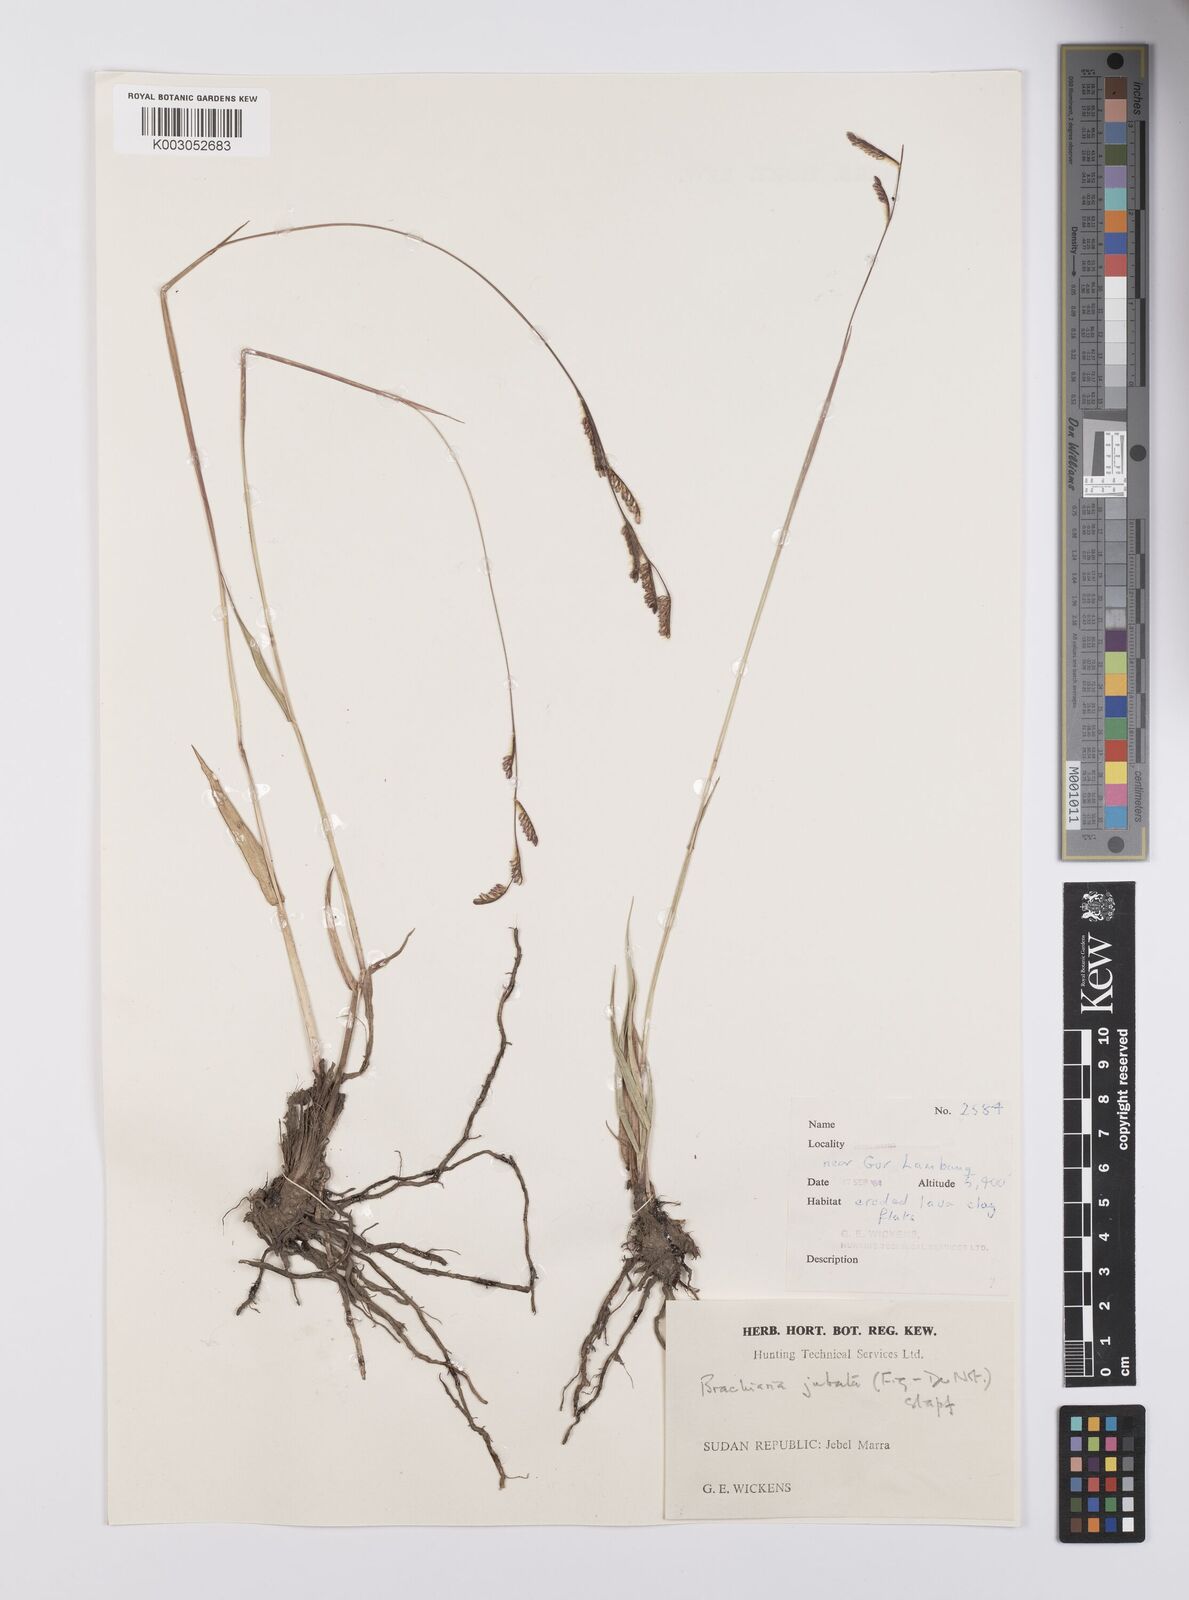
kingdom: Plantae
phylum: Tracheophyta
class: Liliopsida
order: Poales
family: Poaceae
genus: Urochloa
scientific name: Urochloa jubata
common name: Buffalograss
